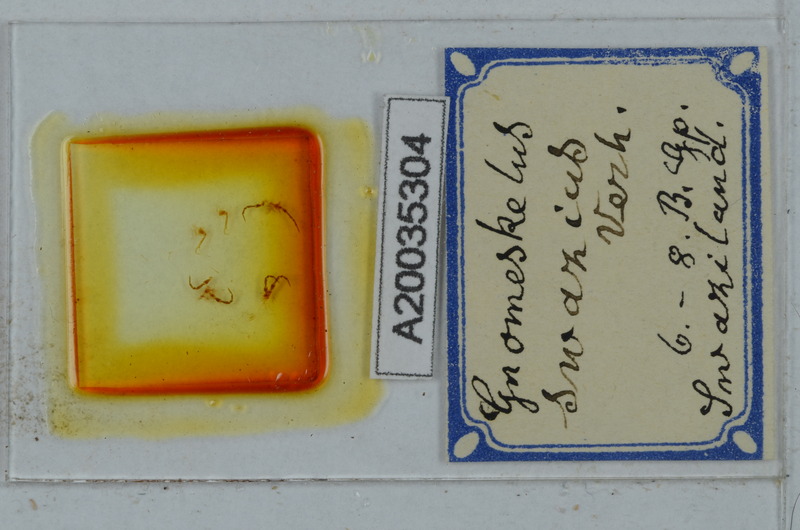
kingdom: Animalia
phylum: Arthropoda
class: Diplopoda
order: Polydesmida
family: Dalodesmidae
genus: Gnomeskelus
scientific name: Gnomeskelus swazius
